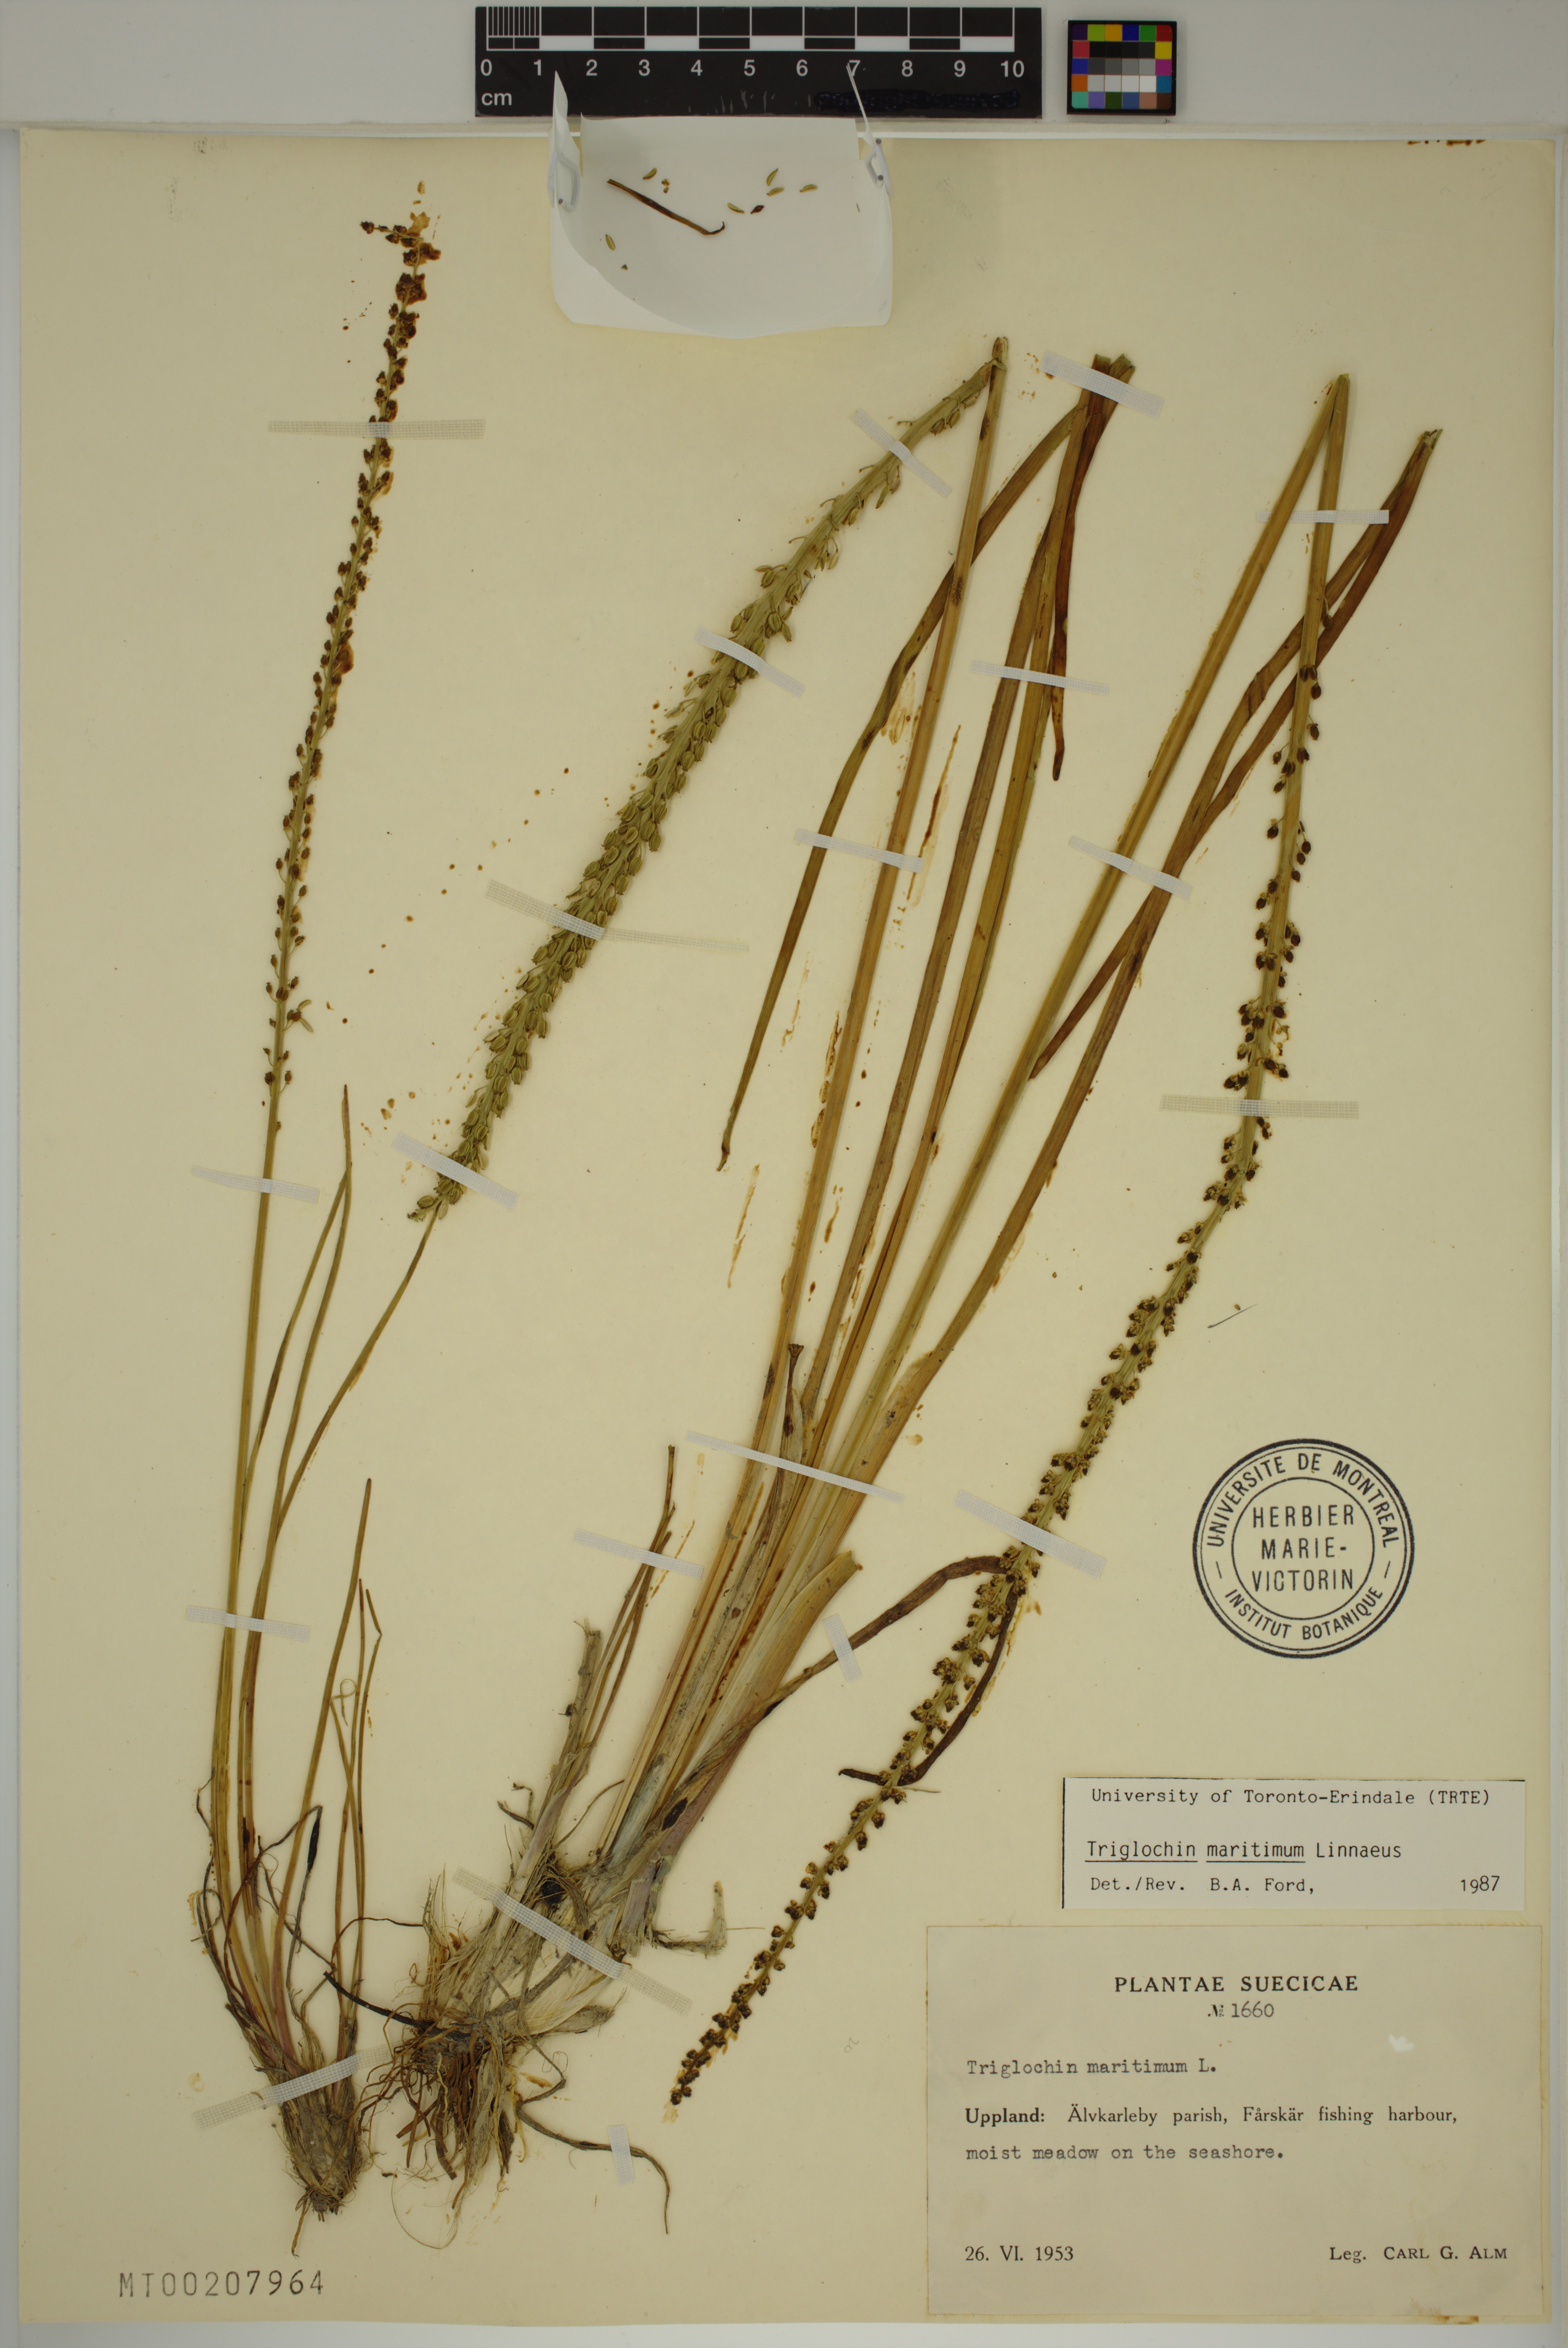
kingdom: Plantae
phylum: Tracheophyta
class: Liliopsida
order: Alismatales
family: Juncaginaceae
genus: Triglochin
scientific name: Triglochin maritima
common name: Sea arrowgrass
